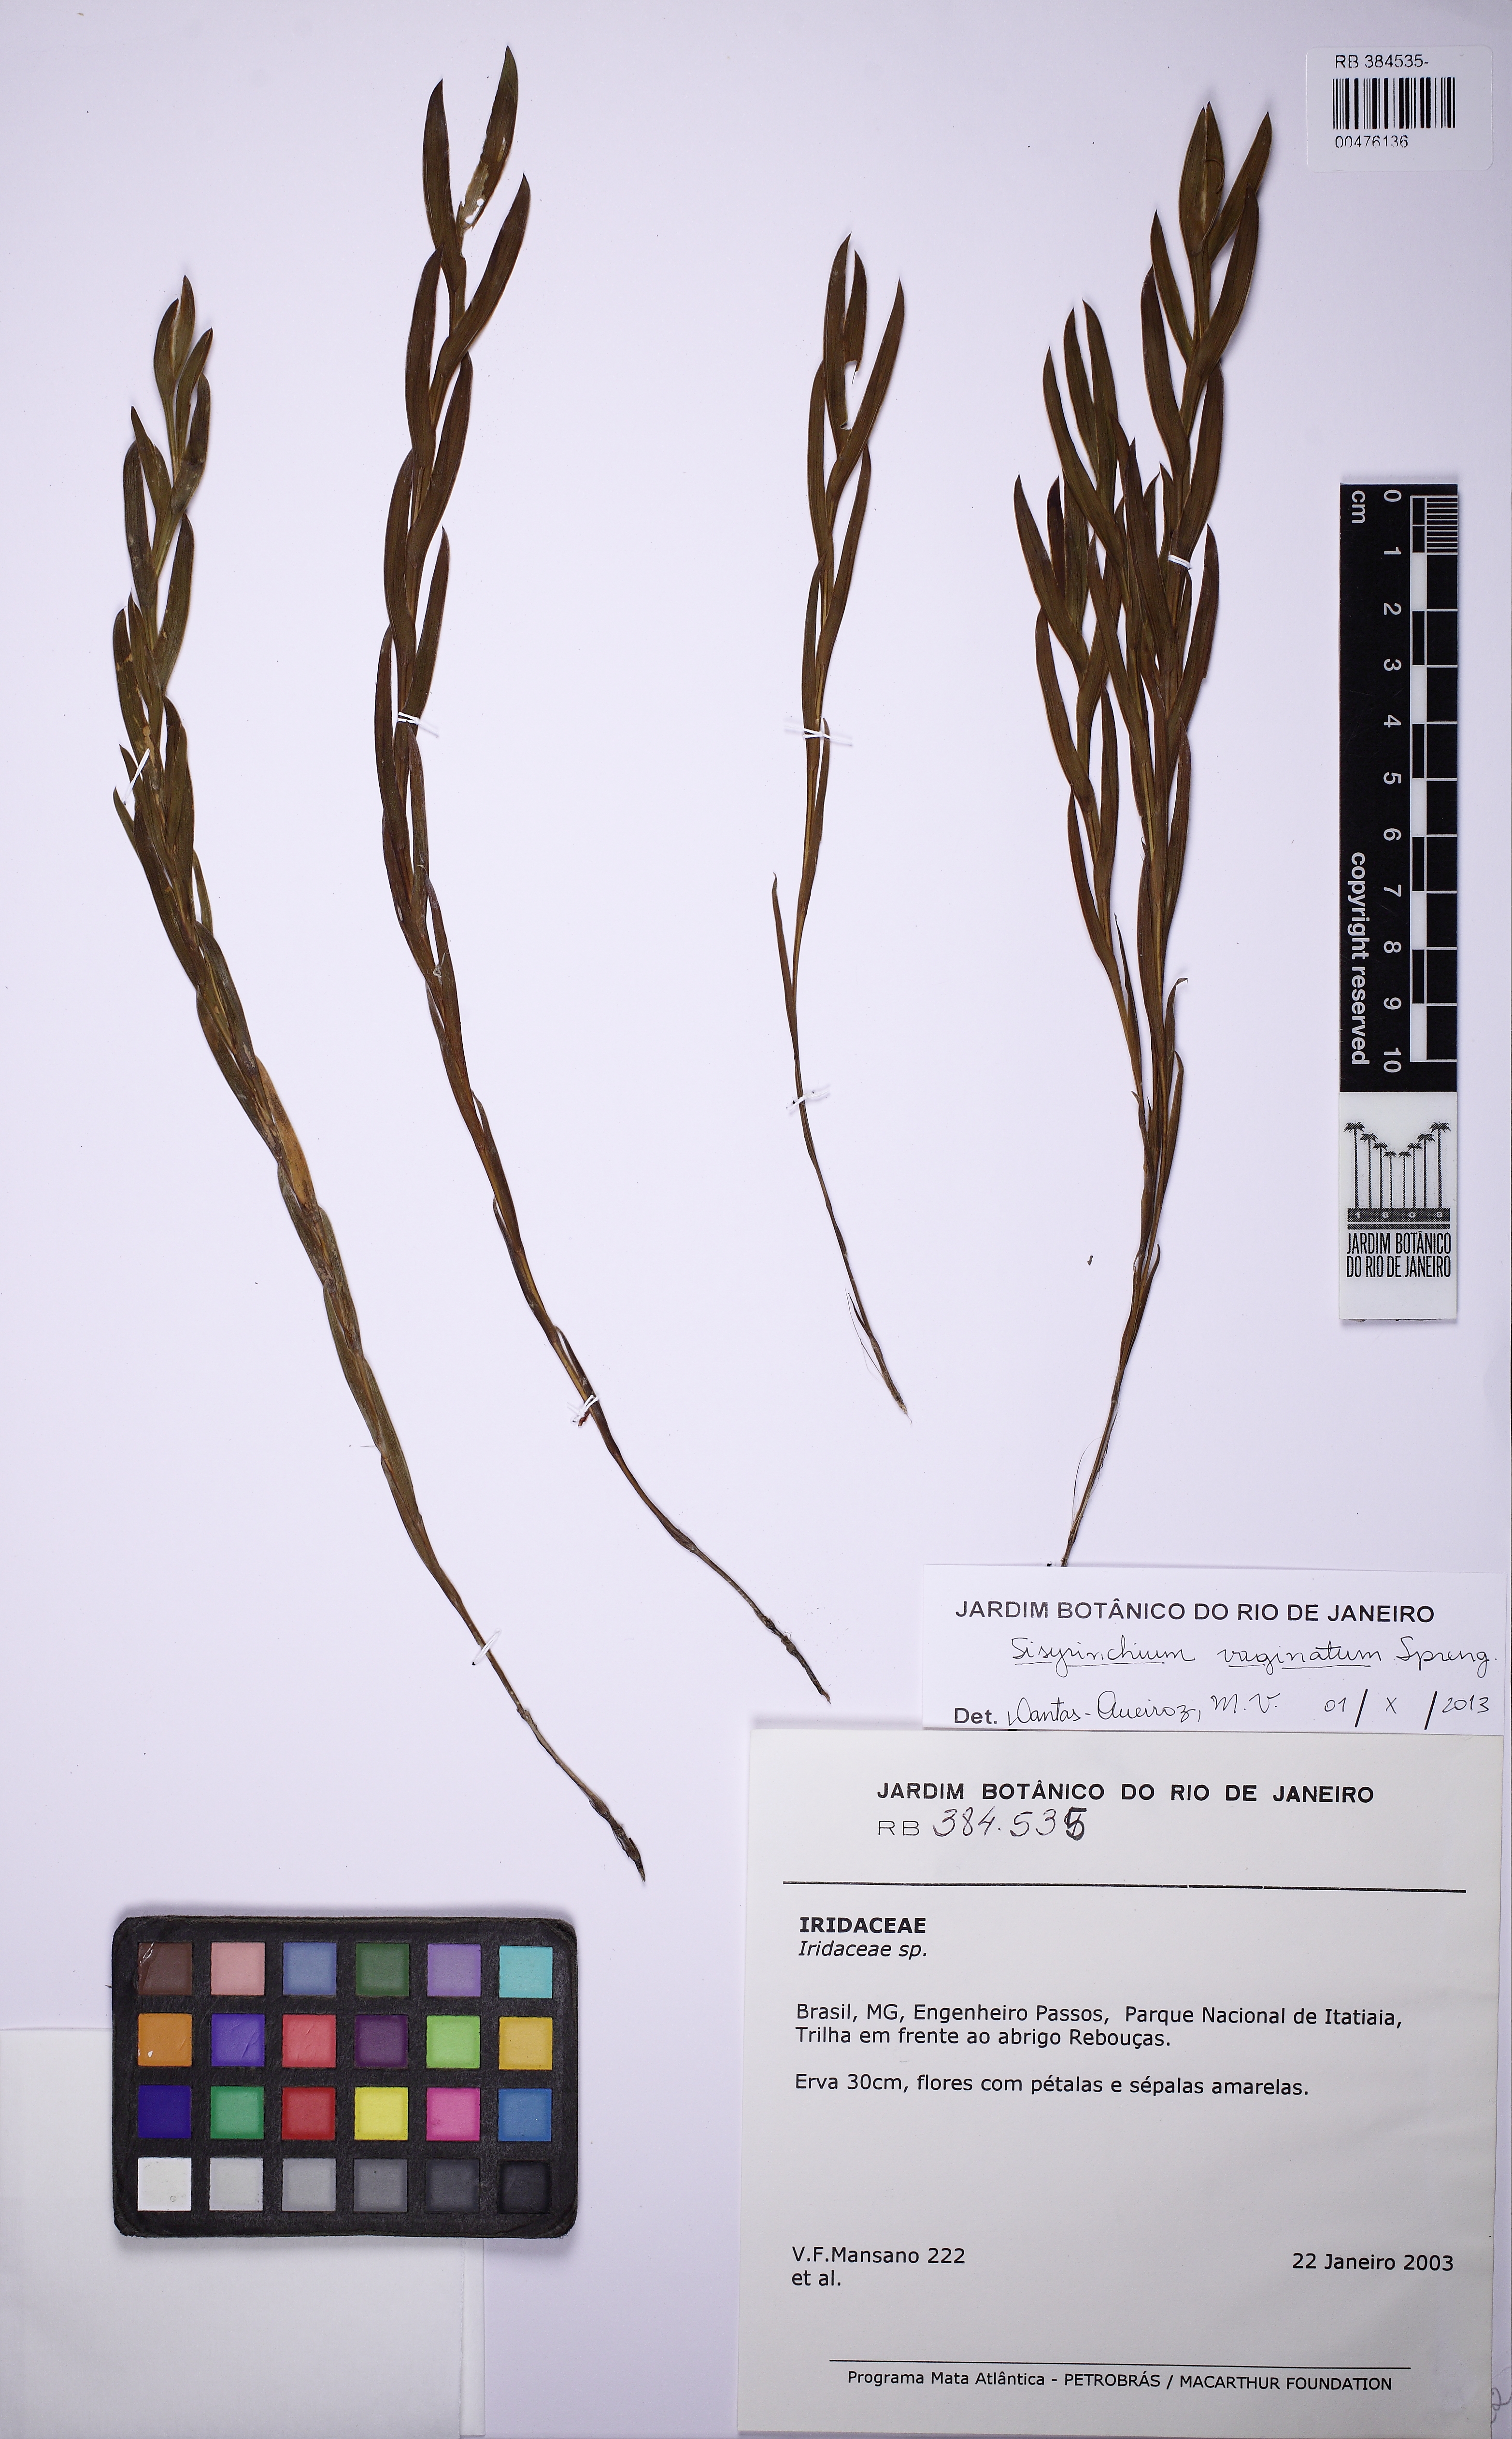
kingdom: Plantae
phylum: Tracheophyta
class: Liliopsida
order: Asparagales
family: Iridaceae
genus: Sisyrinchium
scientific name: Sisyrinchium vaginatum
